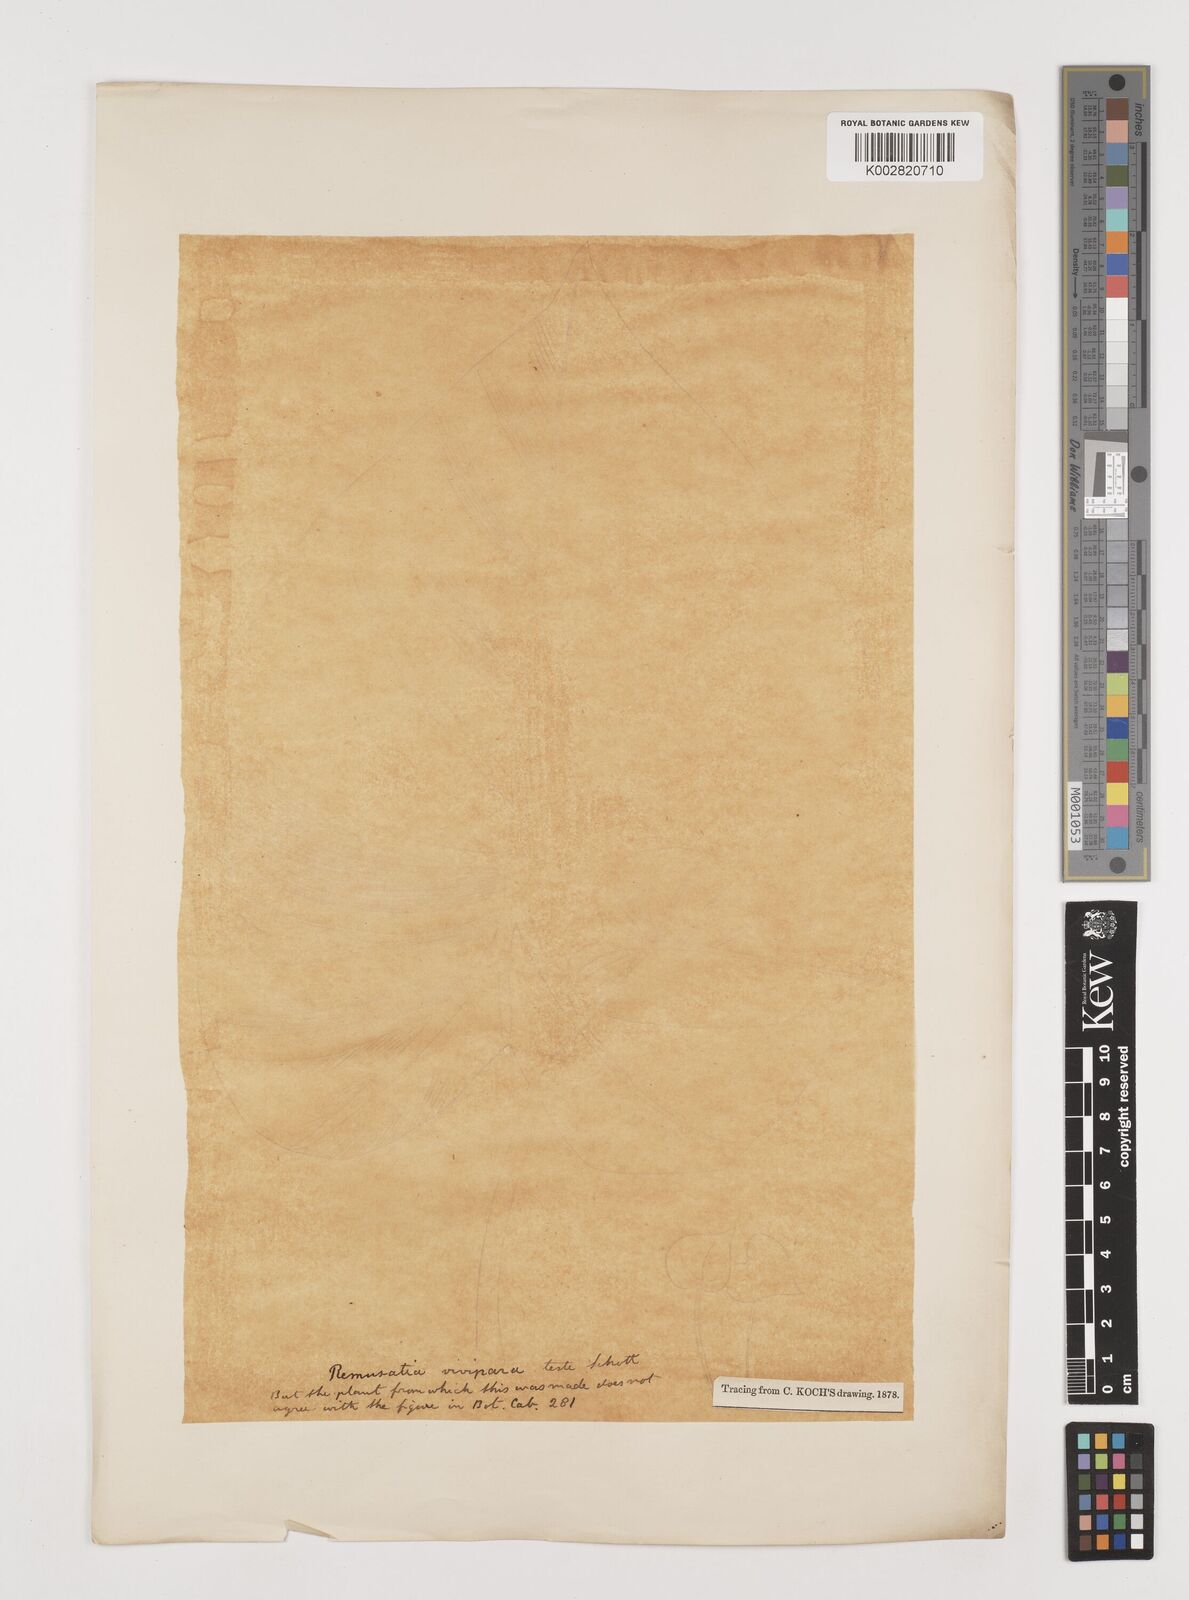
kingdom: Plantae
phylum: Tracheophyta
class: Liliopsida
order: Alismatales
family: Araceae
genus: Remusatia
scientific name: Remusatia vivipara
